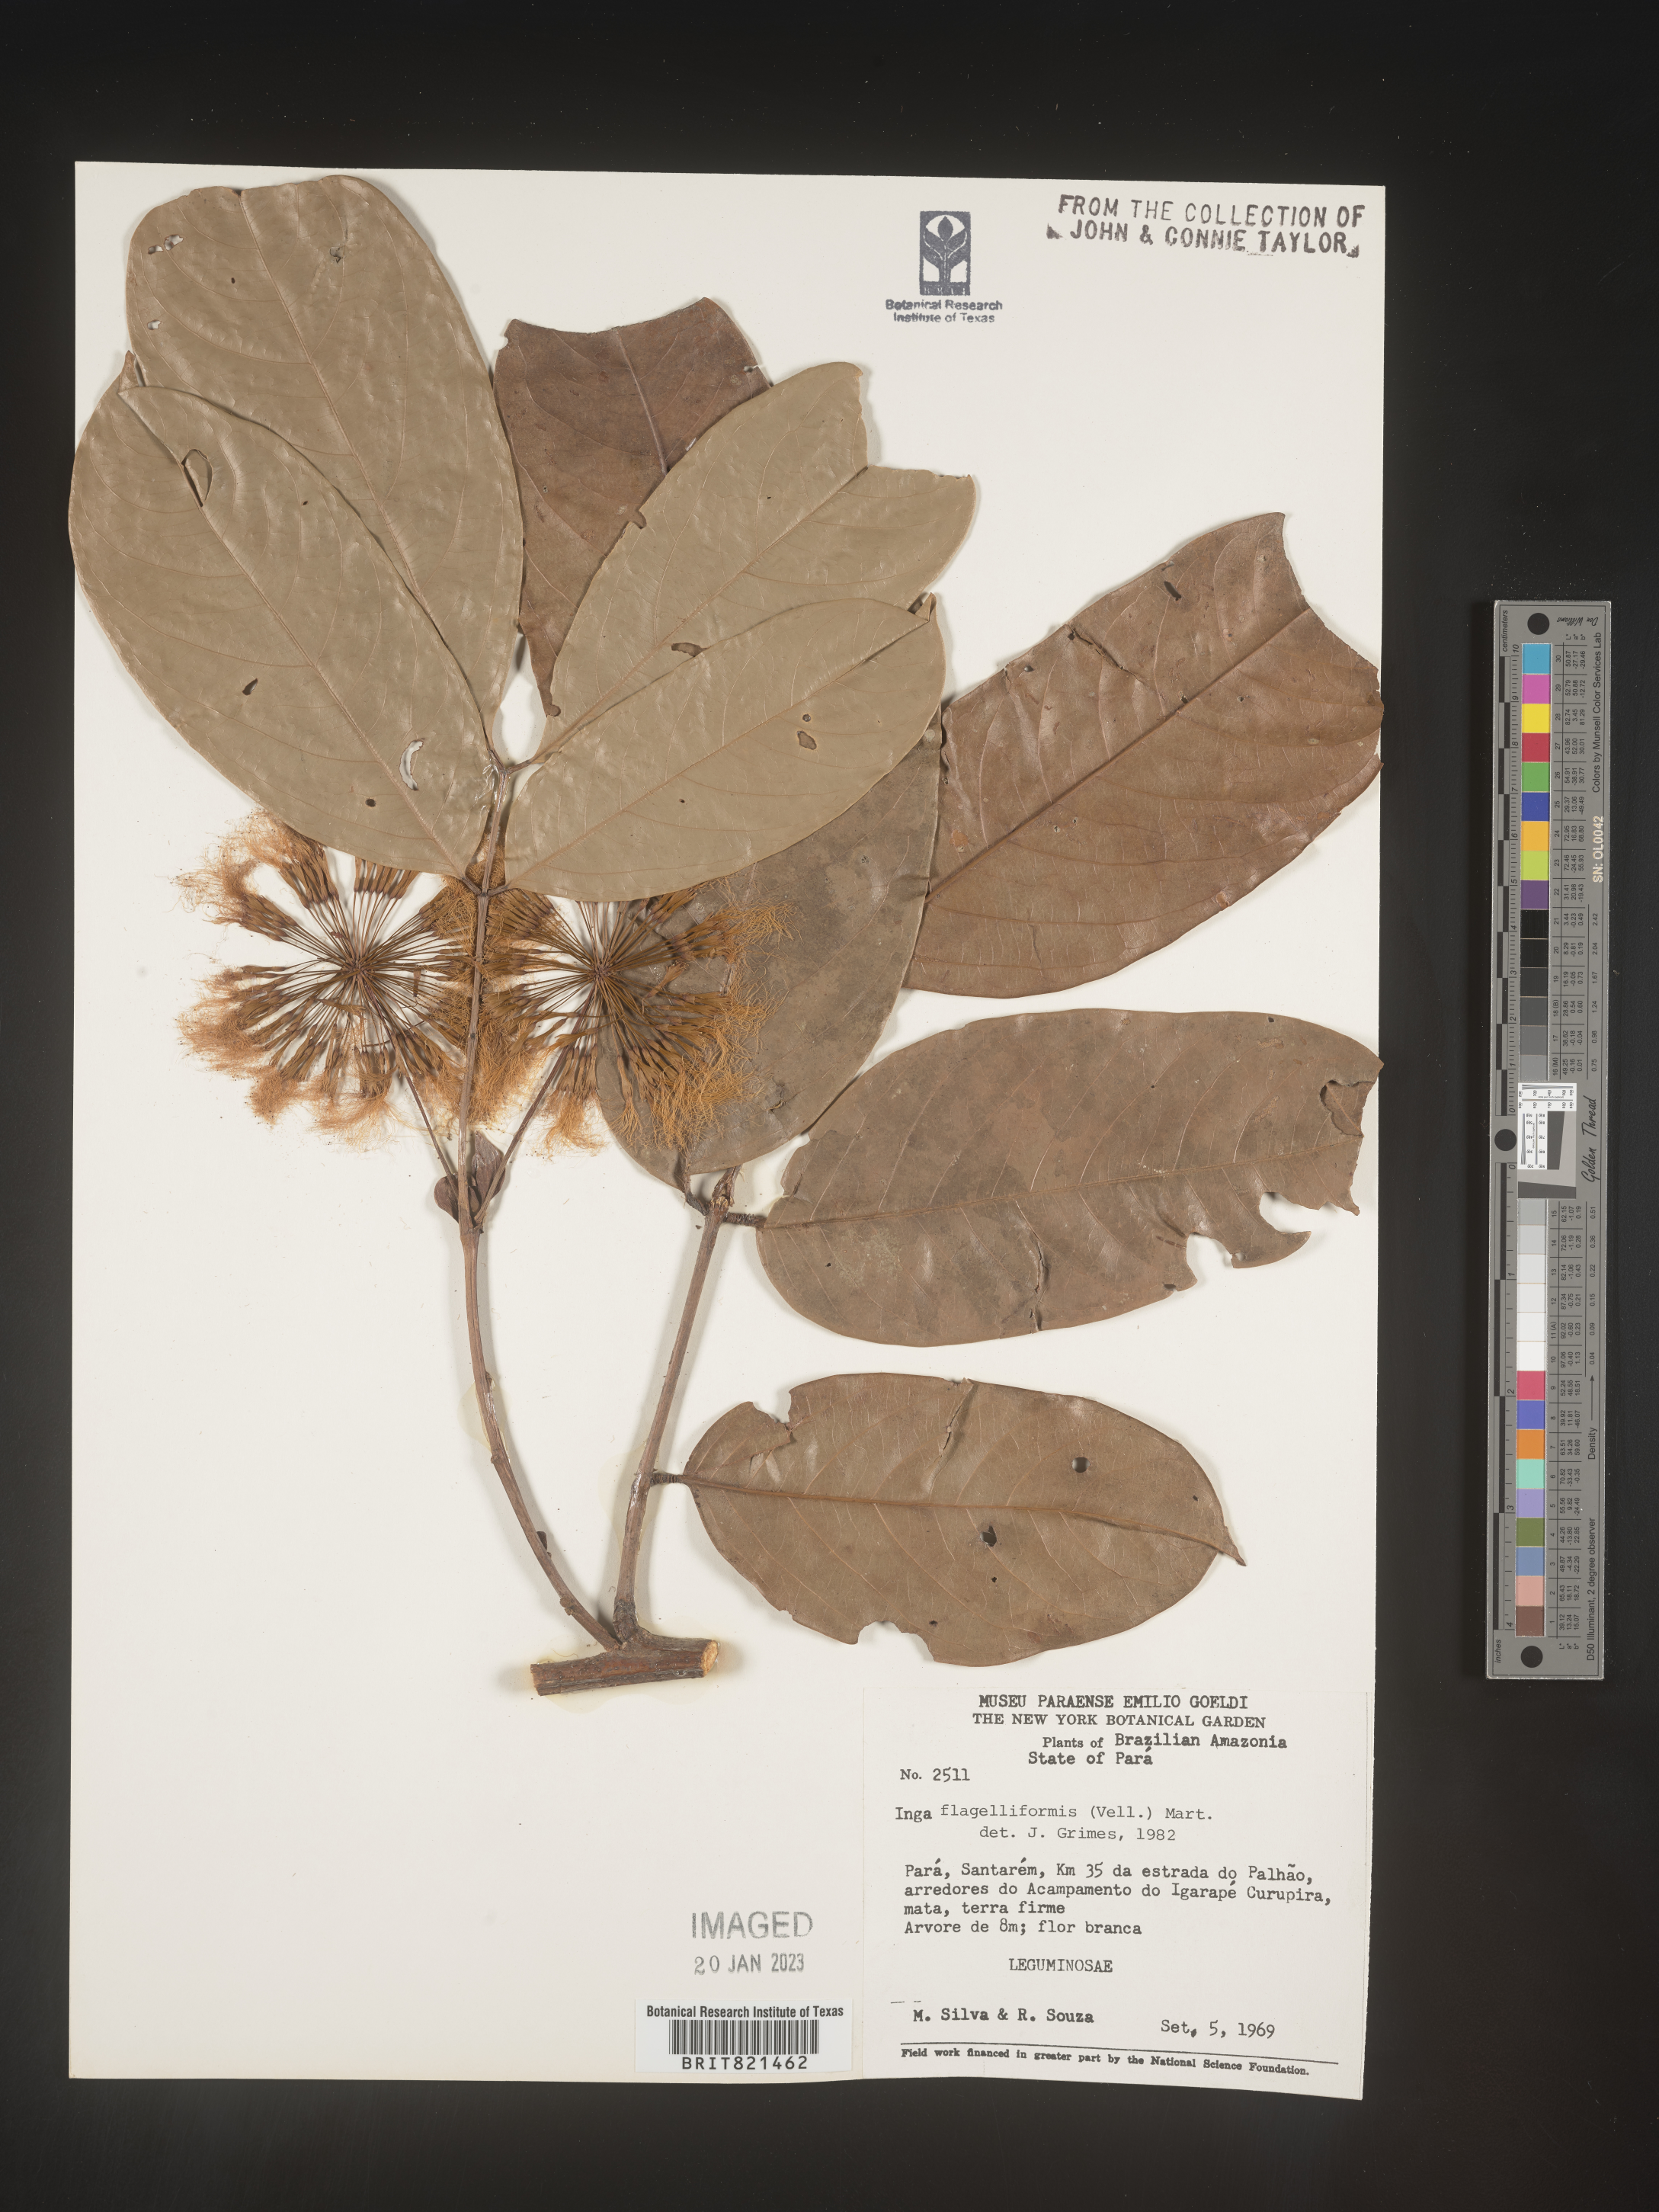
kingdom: Plantae
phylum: Tracheophyta
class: Magnoliopsida
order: Fabales
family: Fabaceae
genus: Inga
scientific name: Inga
